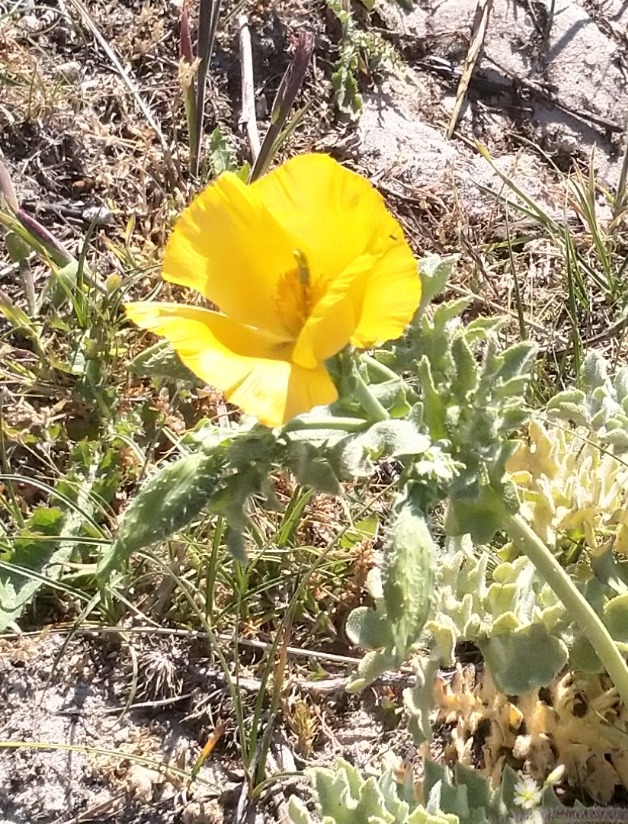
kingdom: Plantae
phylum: Tracheophyta
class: Magnoliopsida
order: Ranunculales
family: Papaveraceae
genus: Glaucium
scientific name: Glaucium flavum
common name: Hornskulpe
